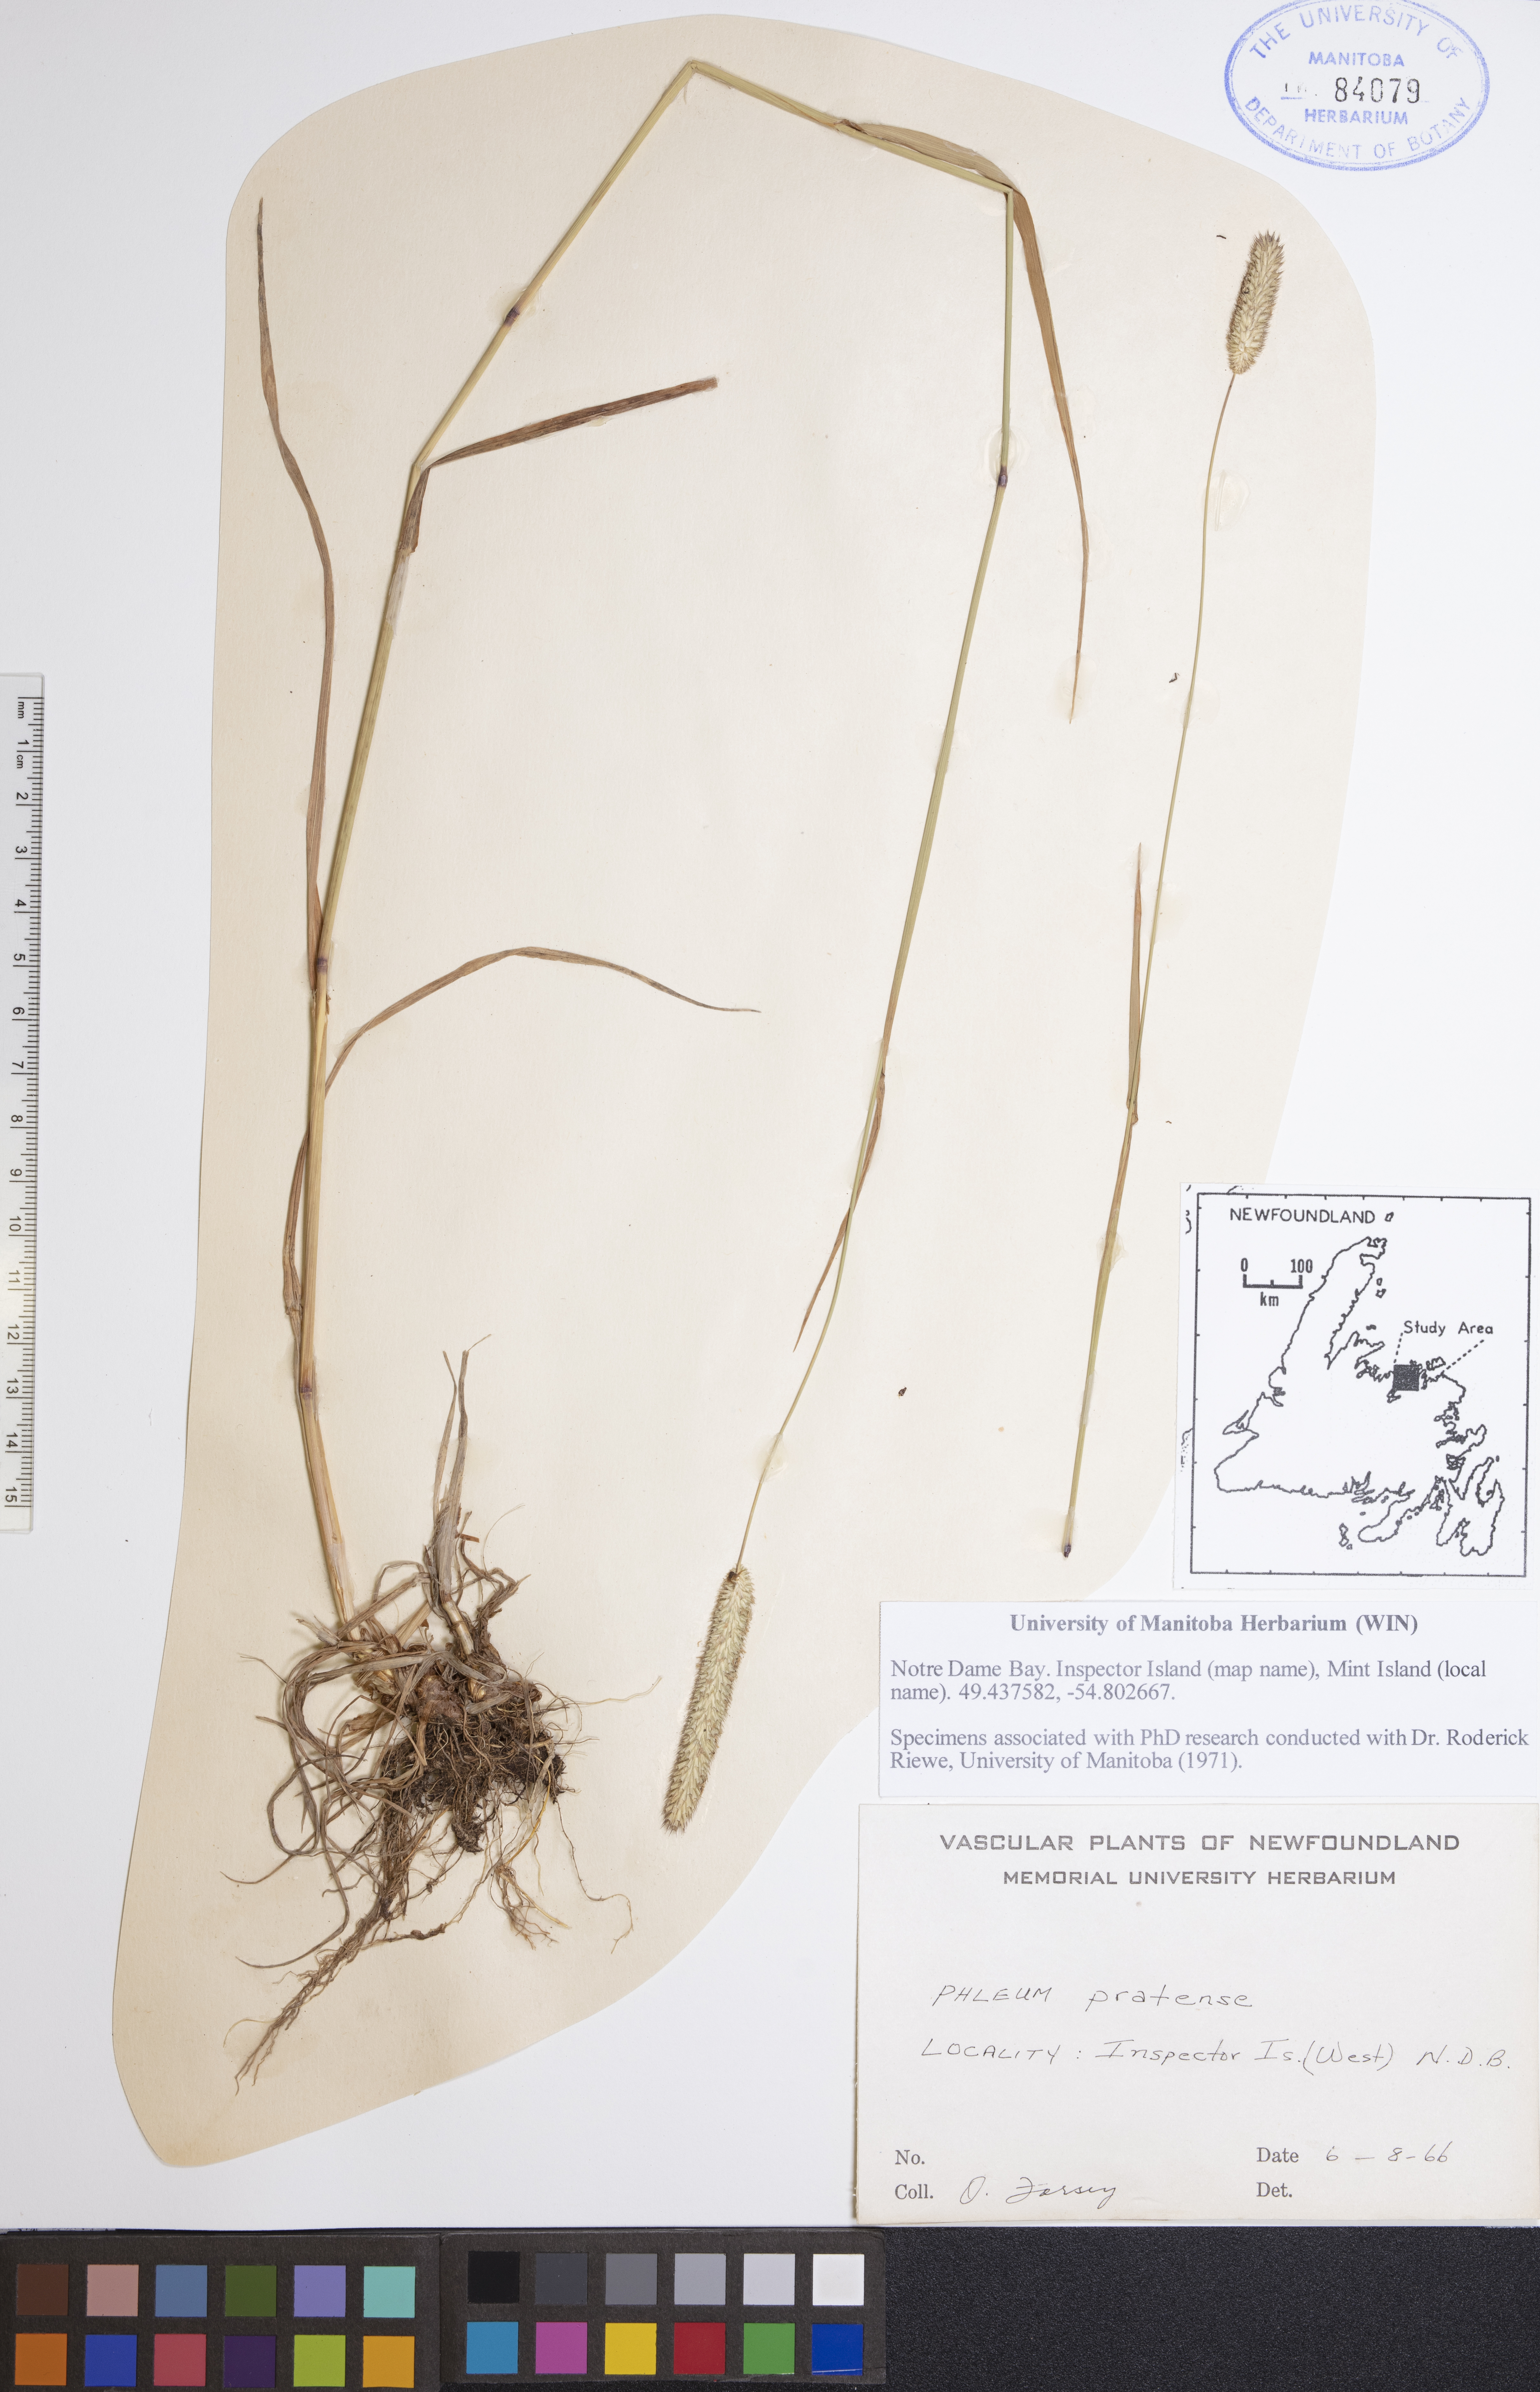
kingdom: Plantae
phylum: Tracheophyta
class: Liliopsida
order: Poales
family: Poaceae
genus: Phleum
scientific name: Phleum pratense
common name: Timothy grass
